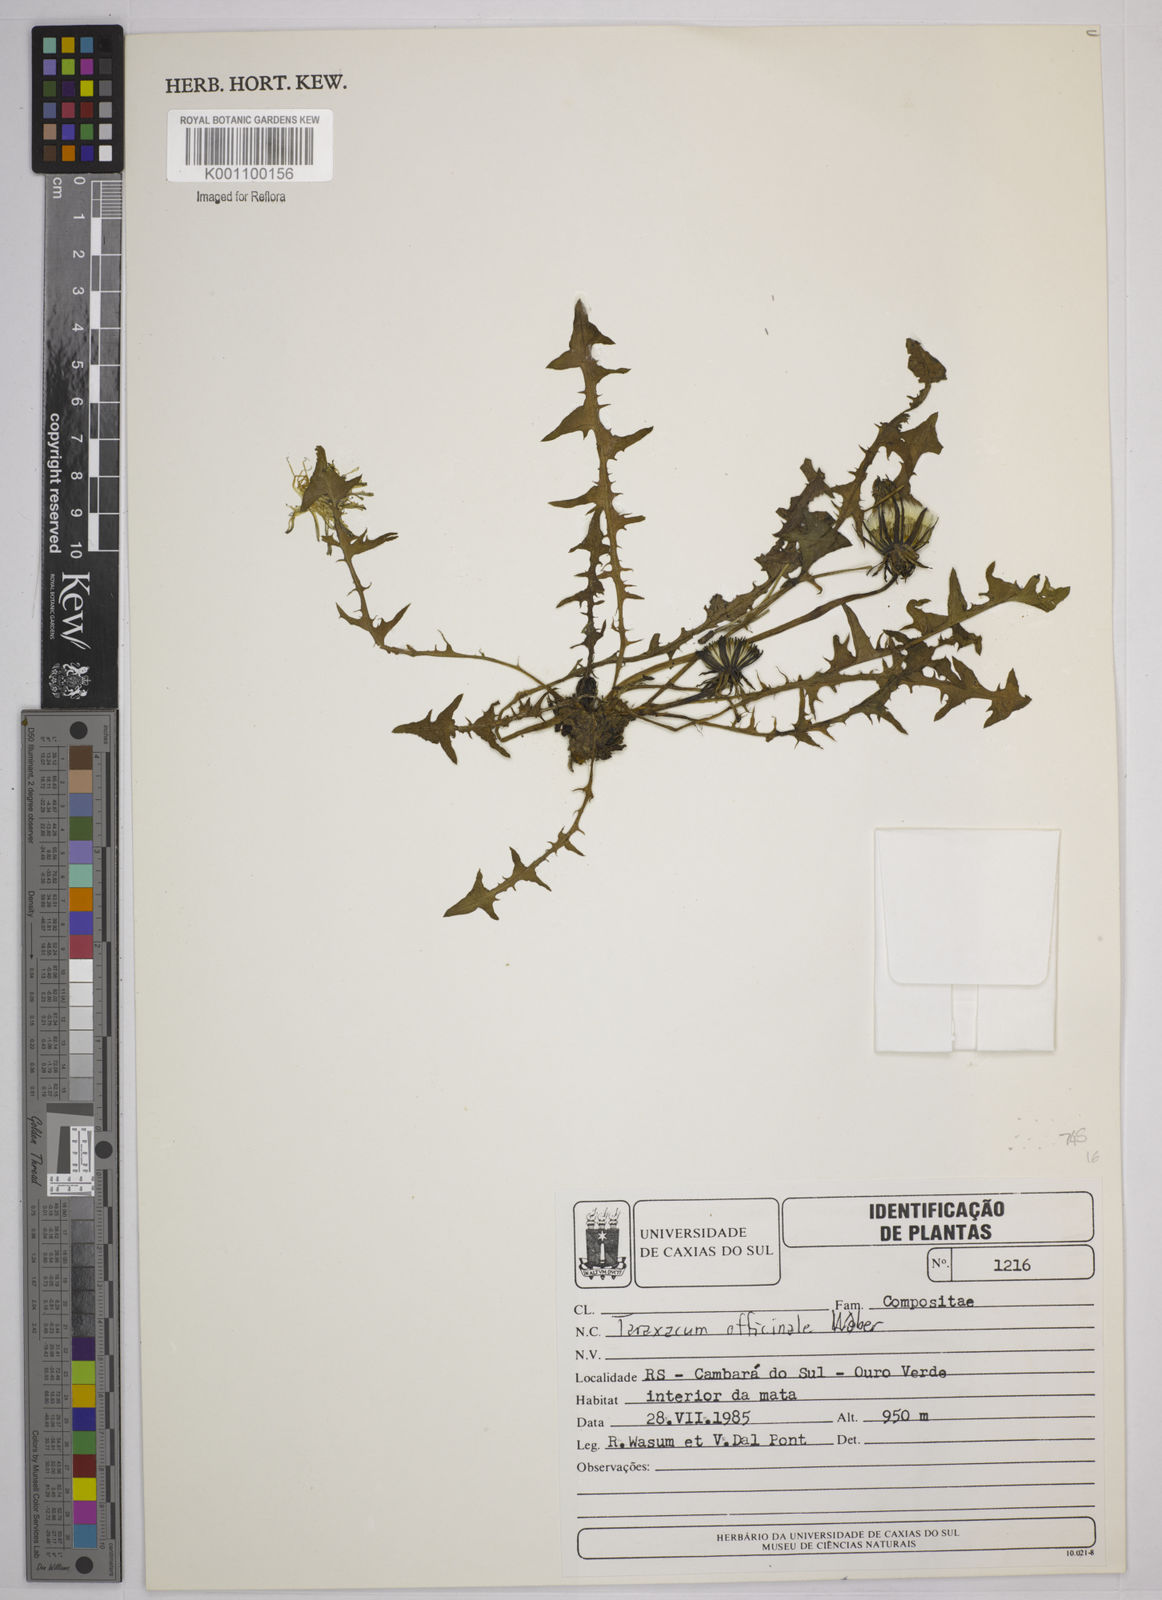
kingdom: Plantae
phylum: Tracheophyta
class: Magnoliopsida
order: Asterales
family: Asteraceae
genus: Taraxacum
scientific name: Taraxacum
